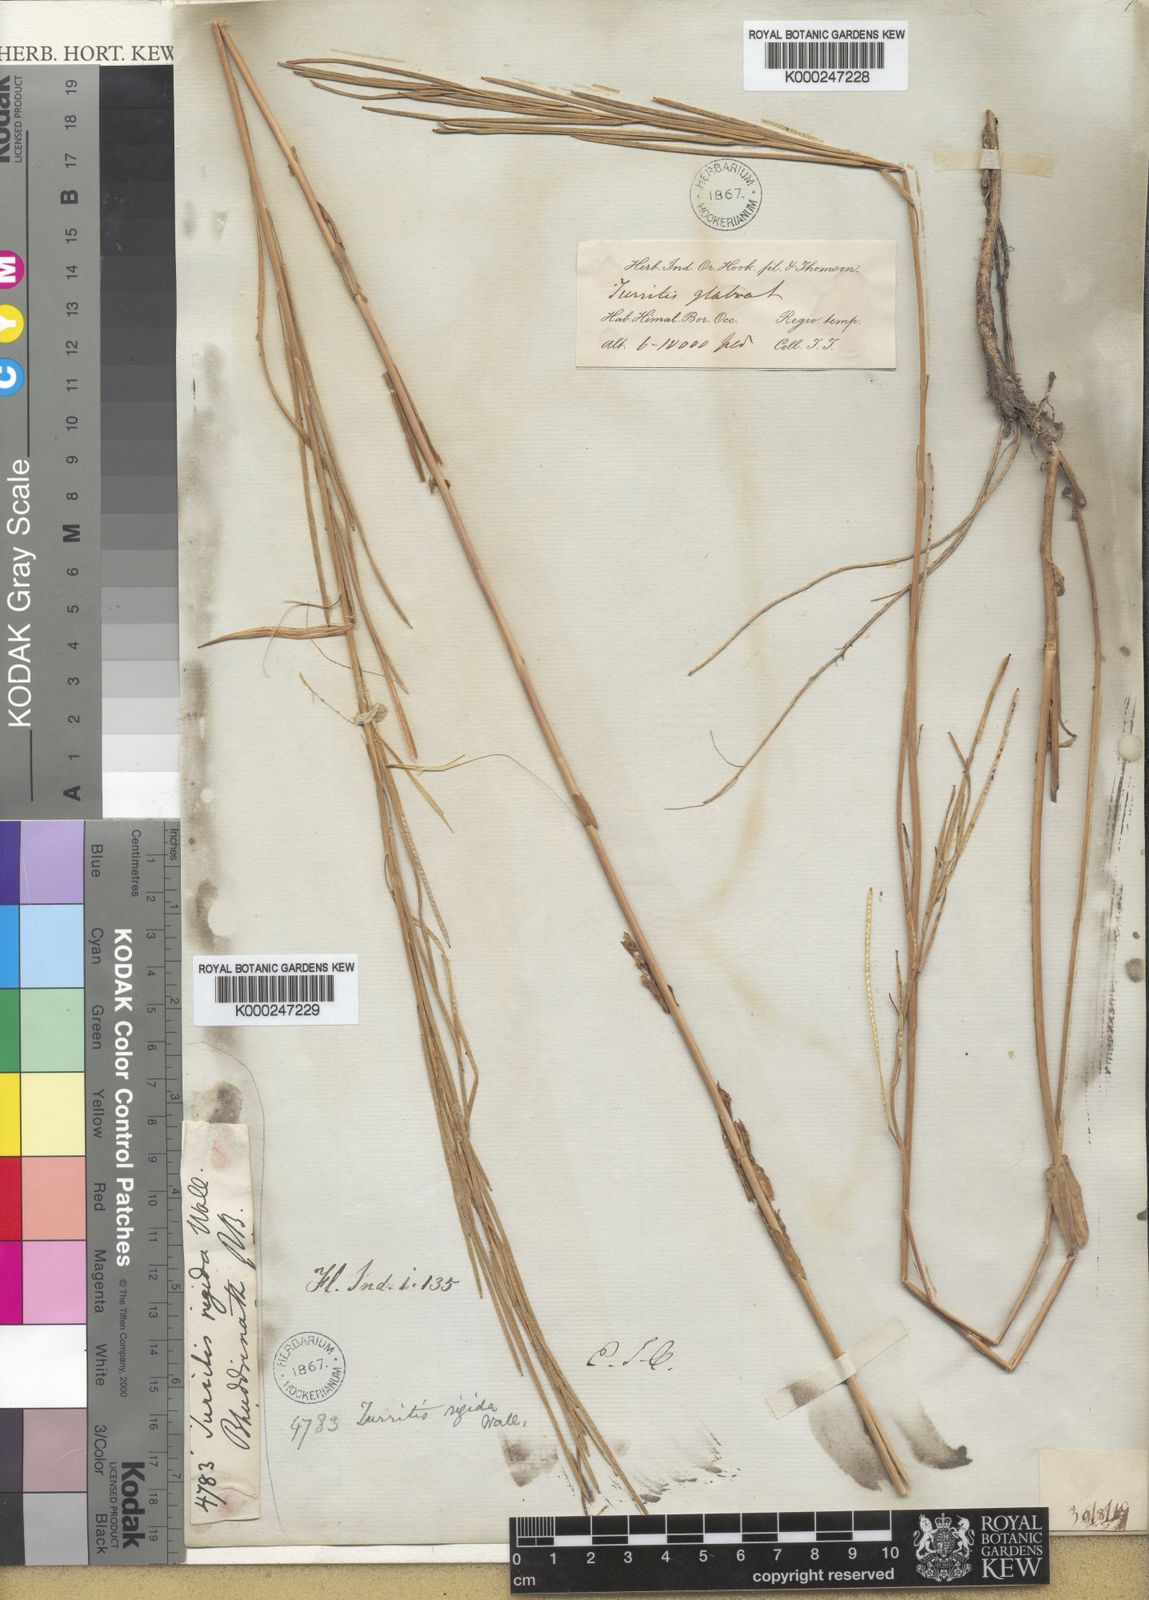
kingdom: Plantae
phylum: Tracheophyta
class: Magnoliopsida
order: Brassicales
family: Brassicaceae
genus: Turritis
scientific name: Turritis glabra
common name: Tower rockcress
